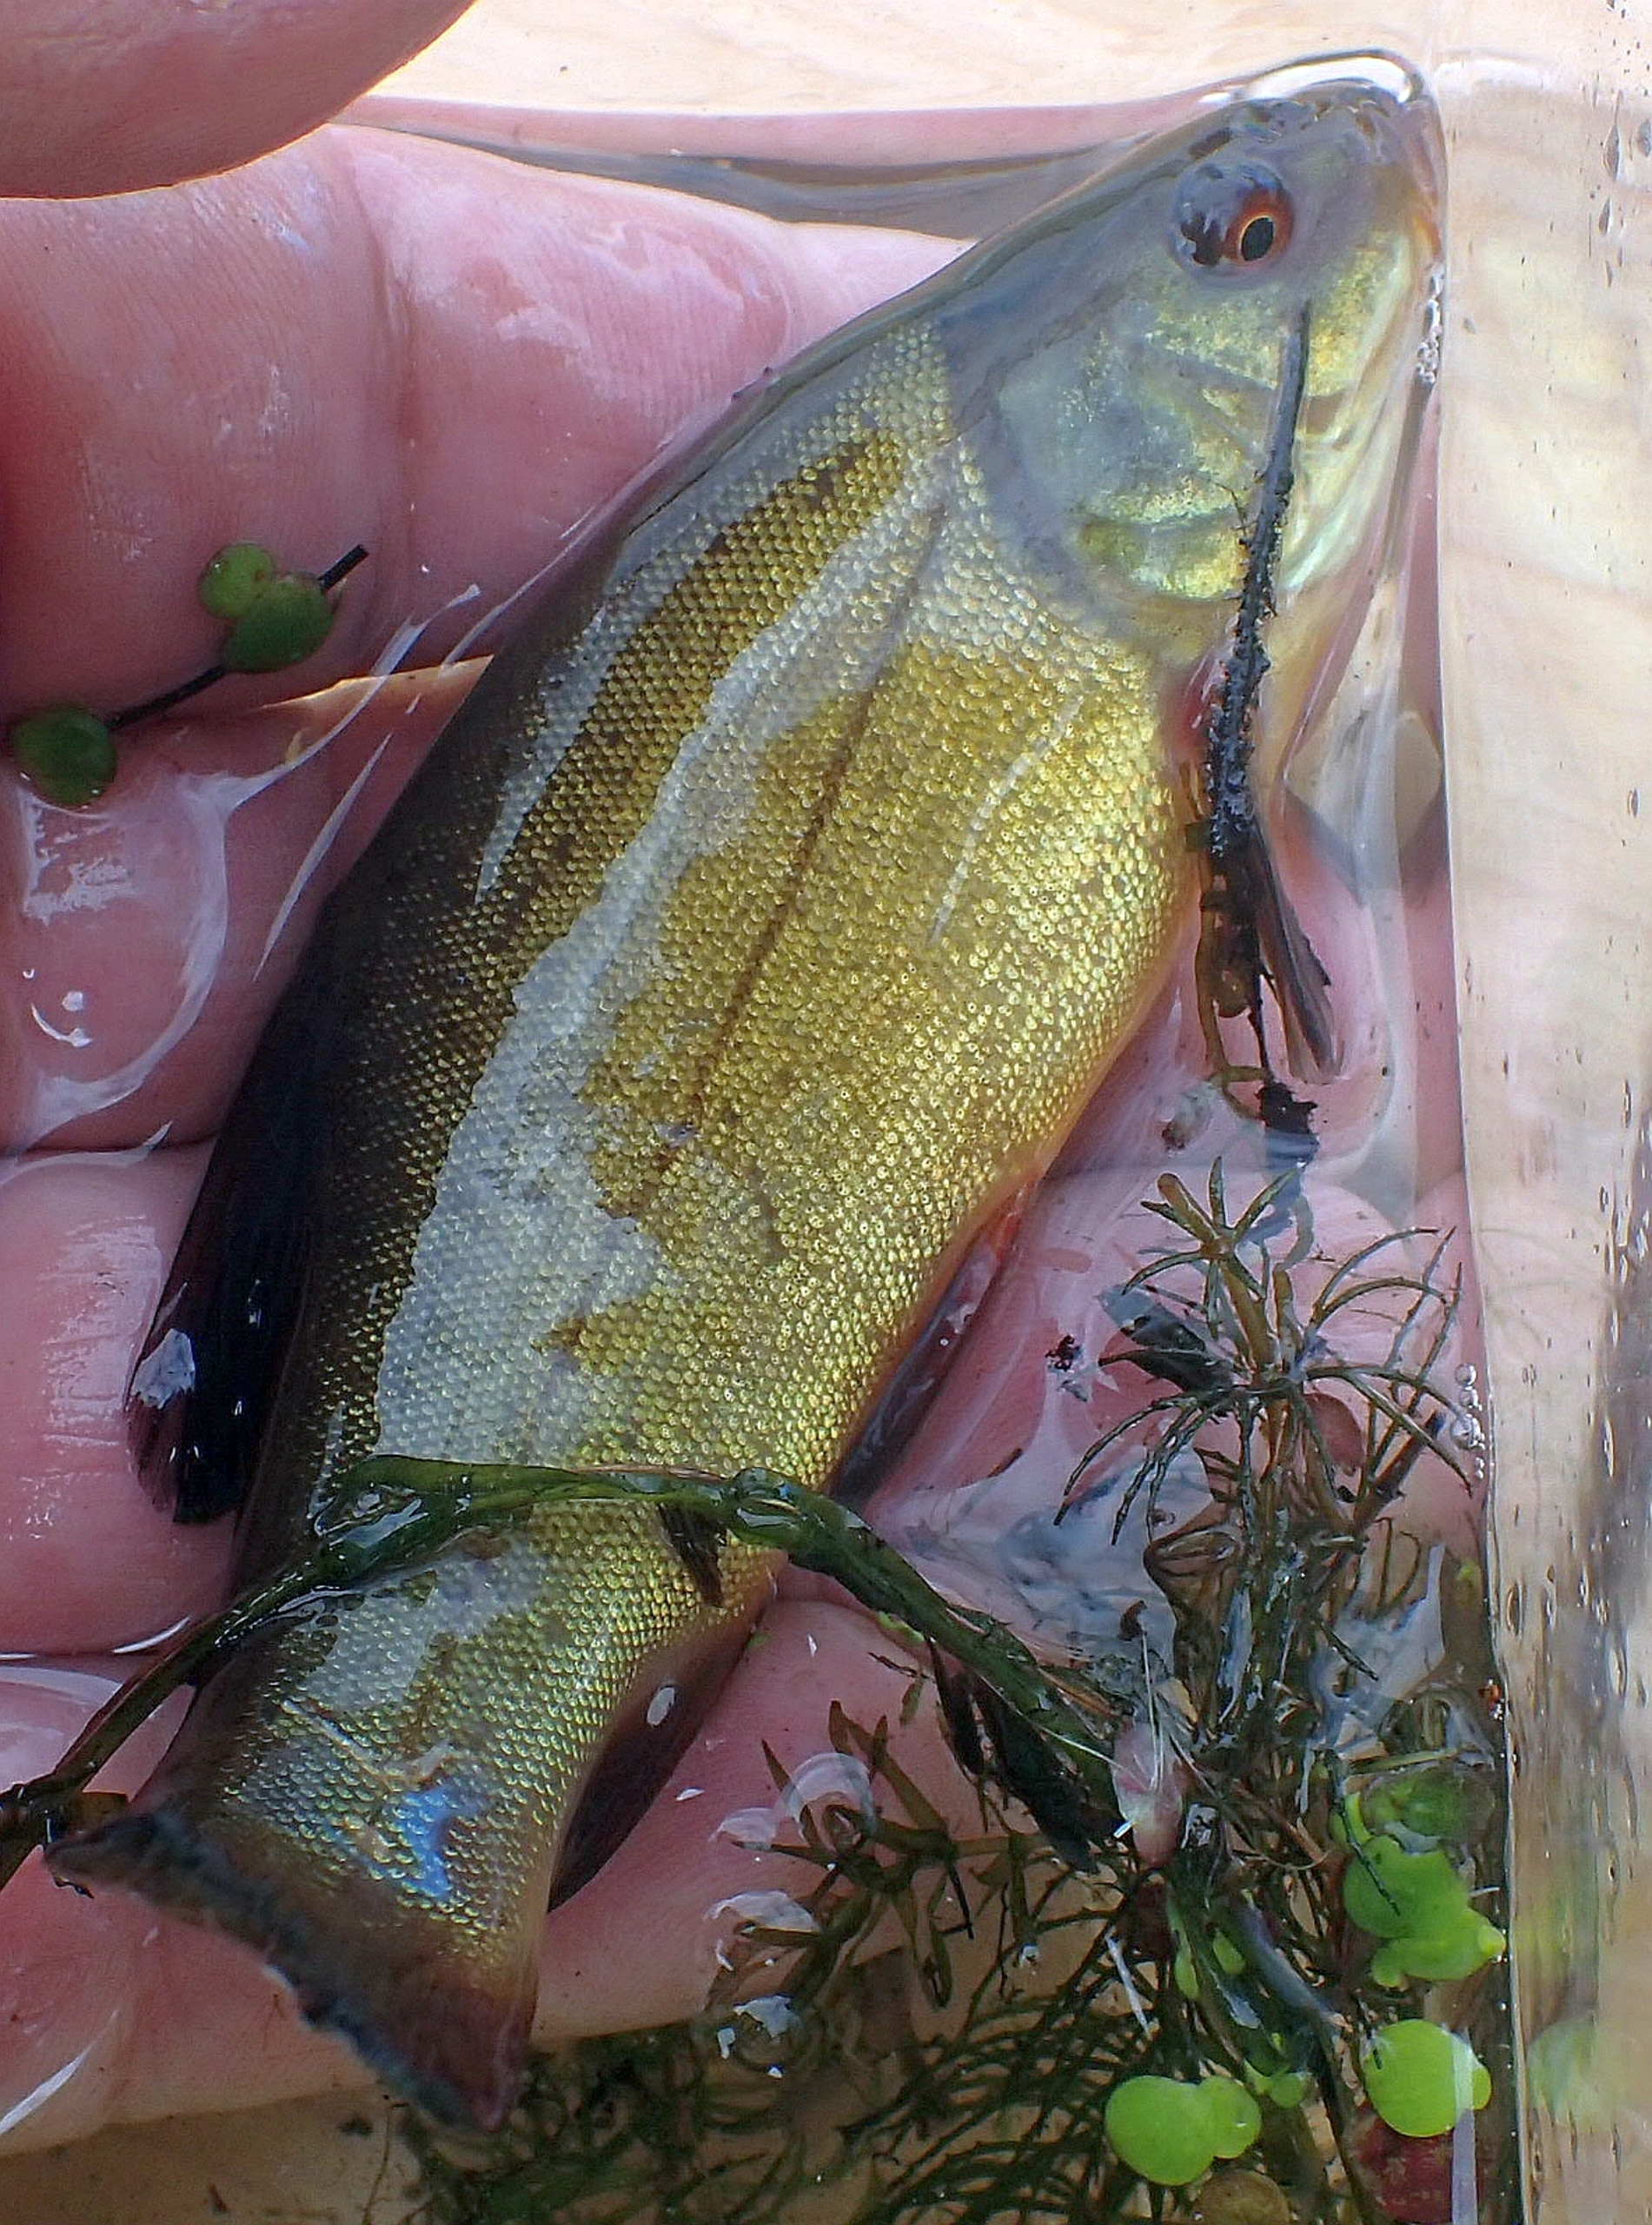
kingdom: Animalia
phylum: Chordata
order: Cypriniformes
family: Cyprinidae
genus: Tinca
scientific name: Tinca tinca
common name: Suder
